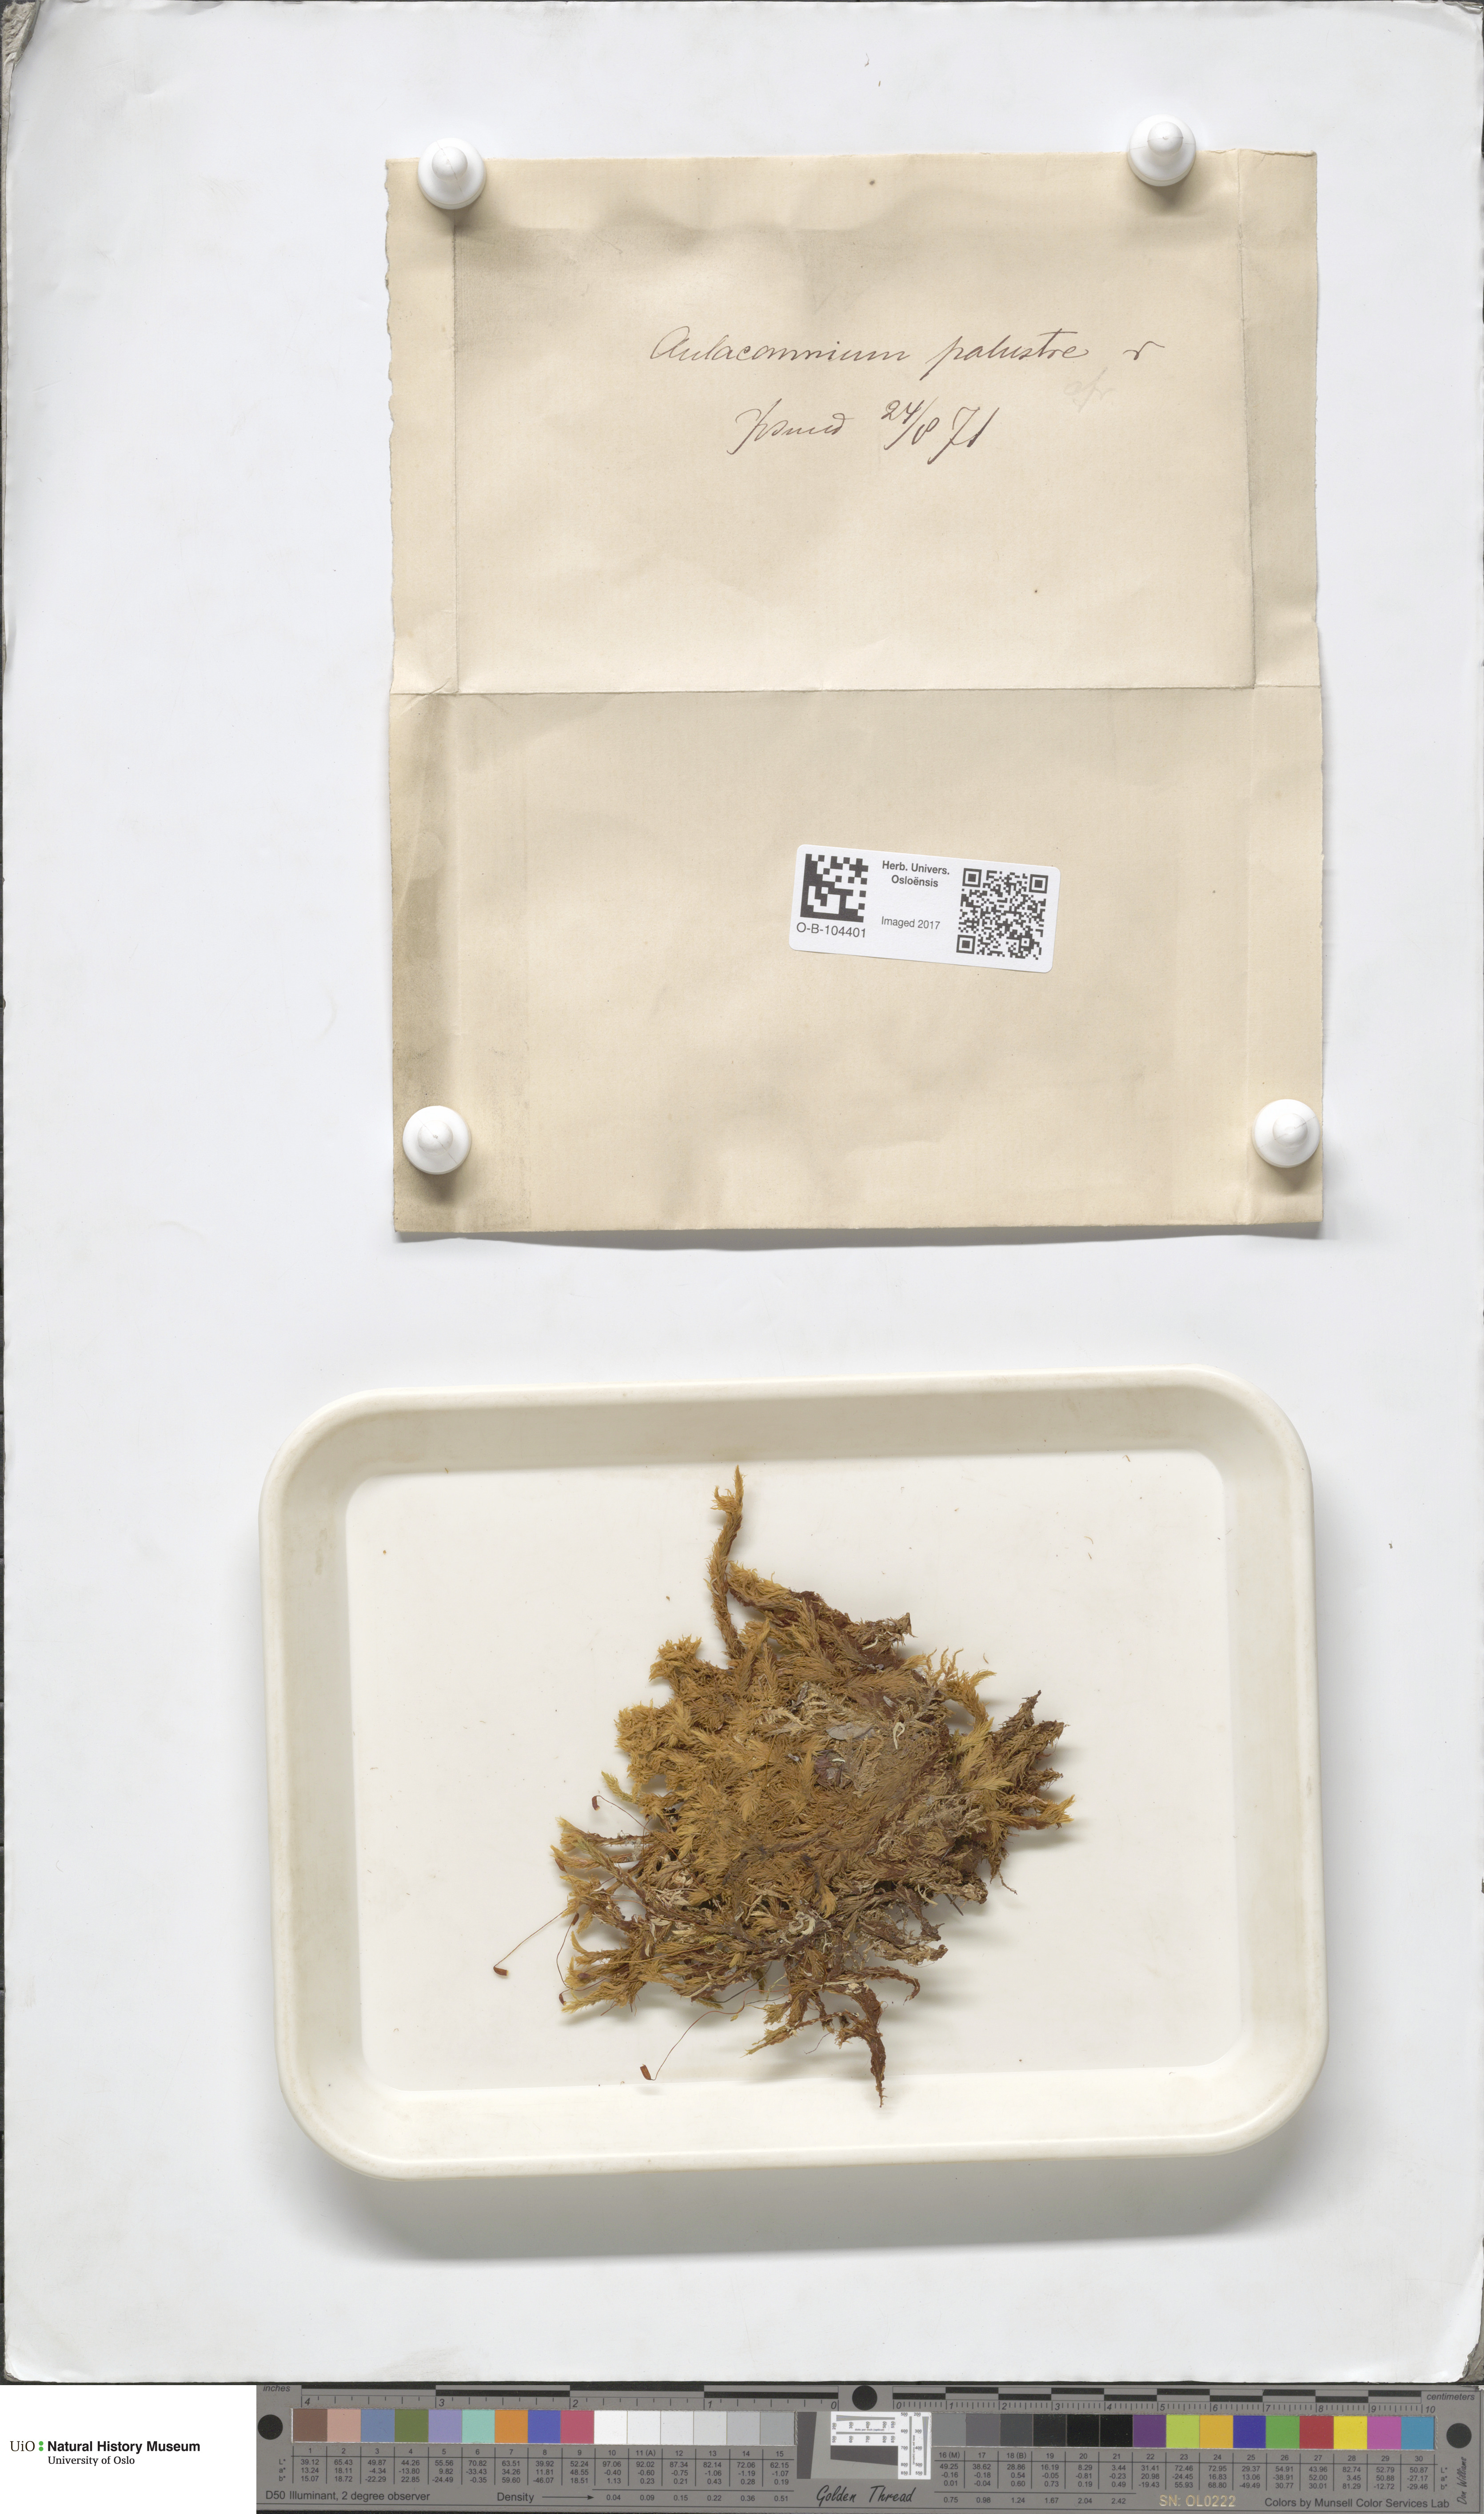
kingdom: Plantae
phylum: Bryophyta
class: Bryopsida
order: Aulacomniales
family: Aulacomniaceae
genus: Aulacomnium
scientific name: Aulacomnium palustre
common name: Bog groove-moss
